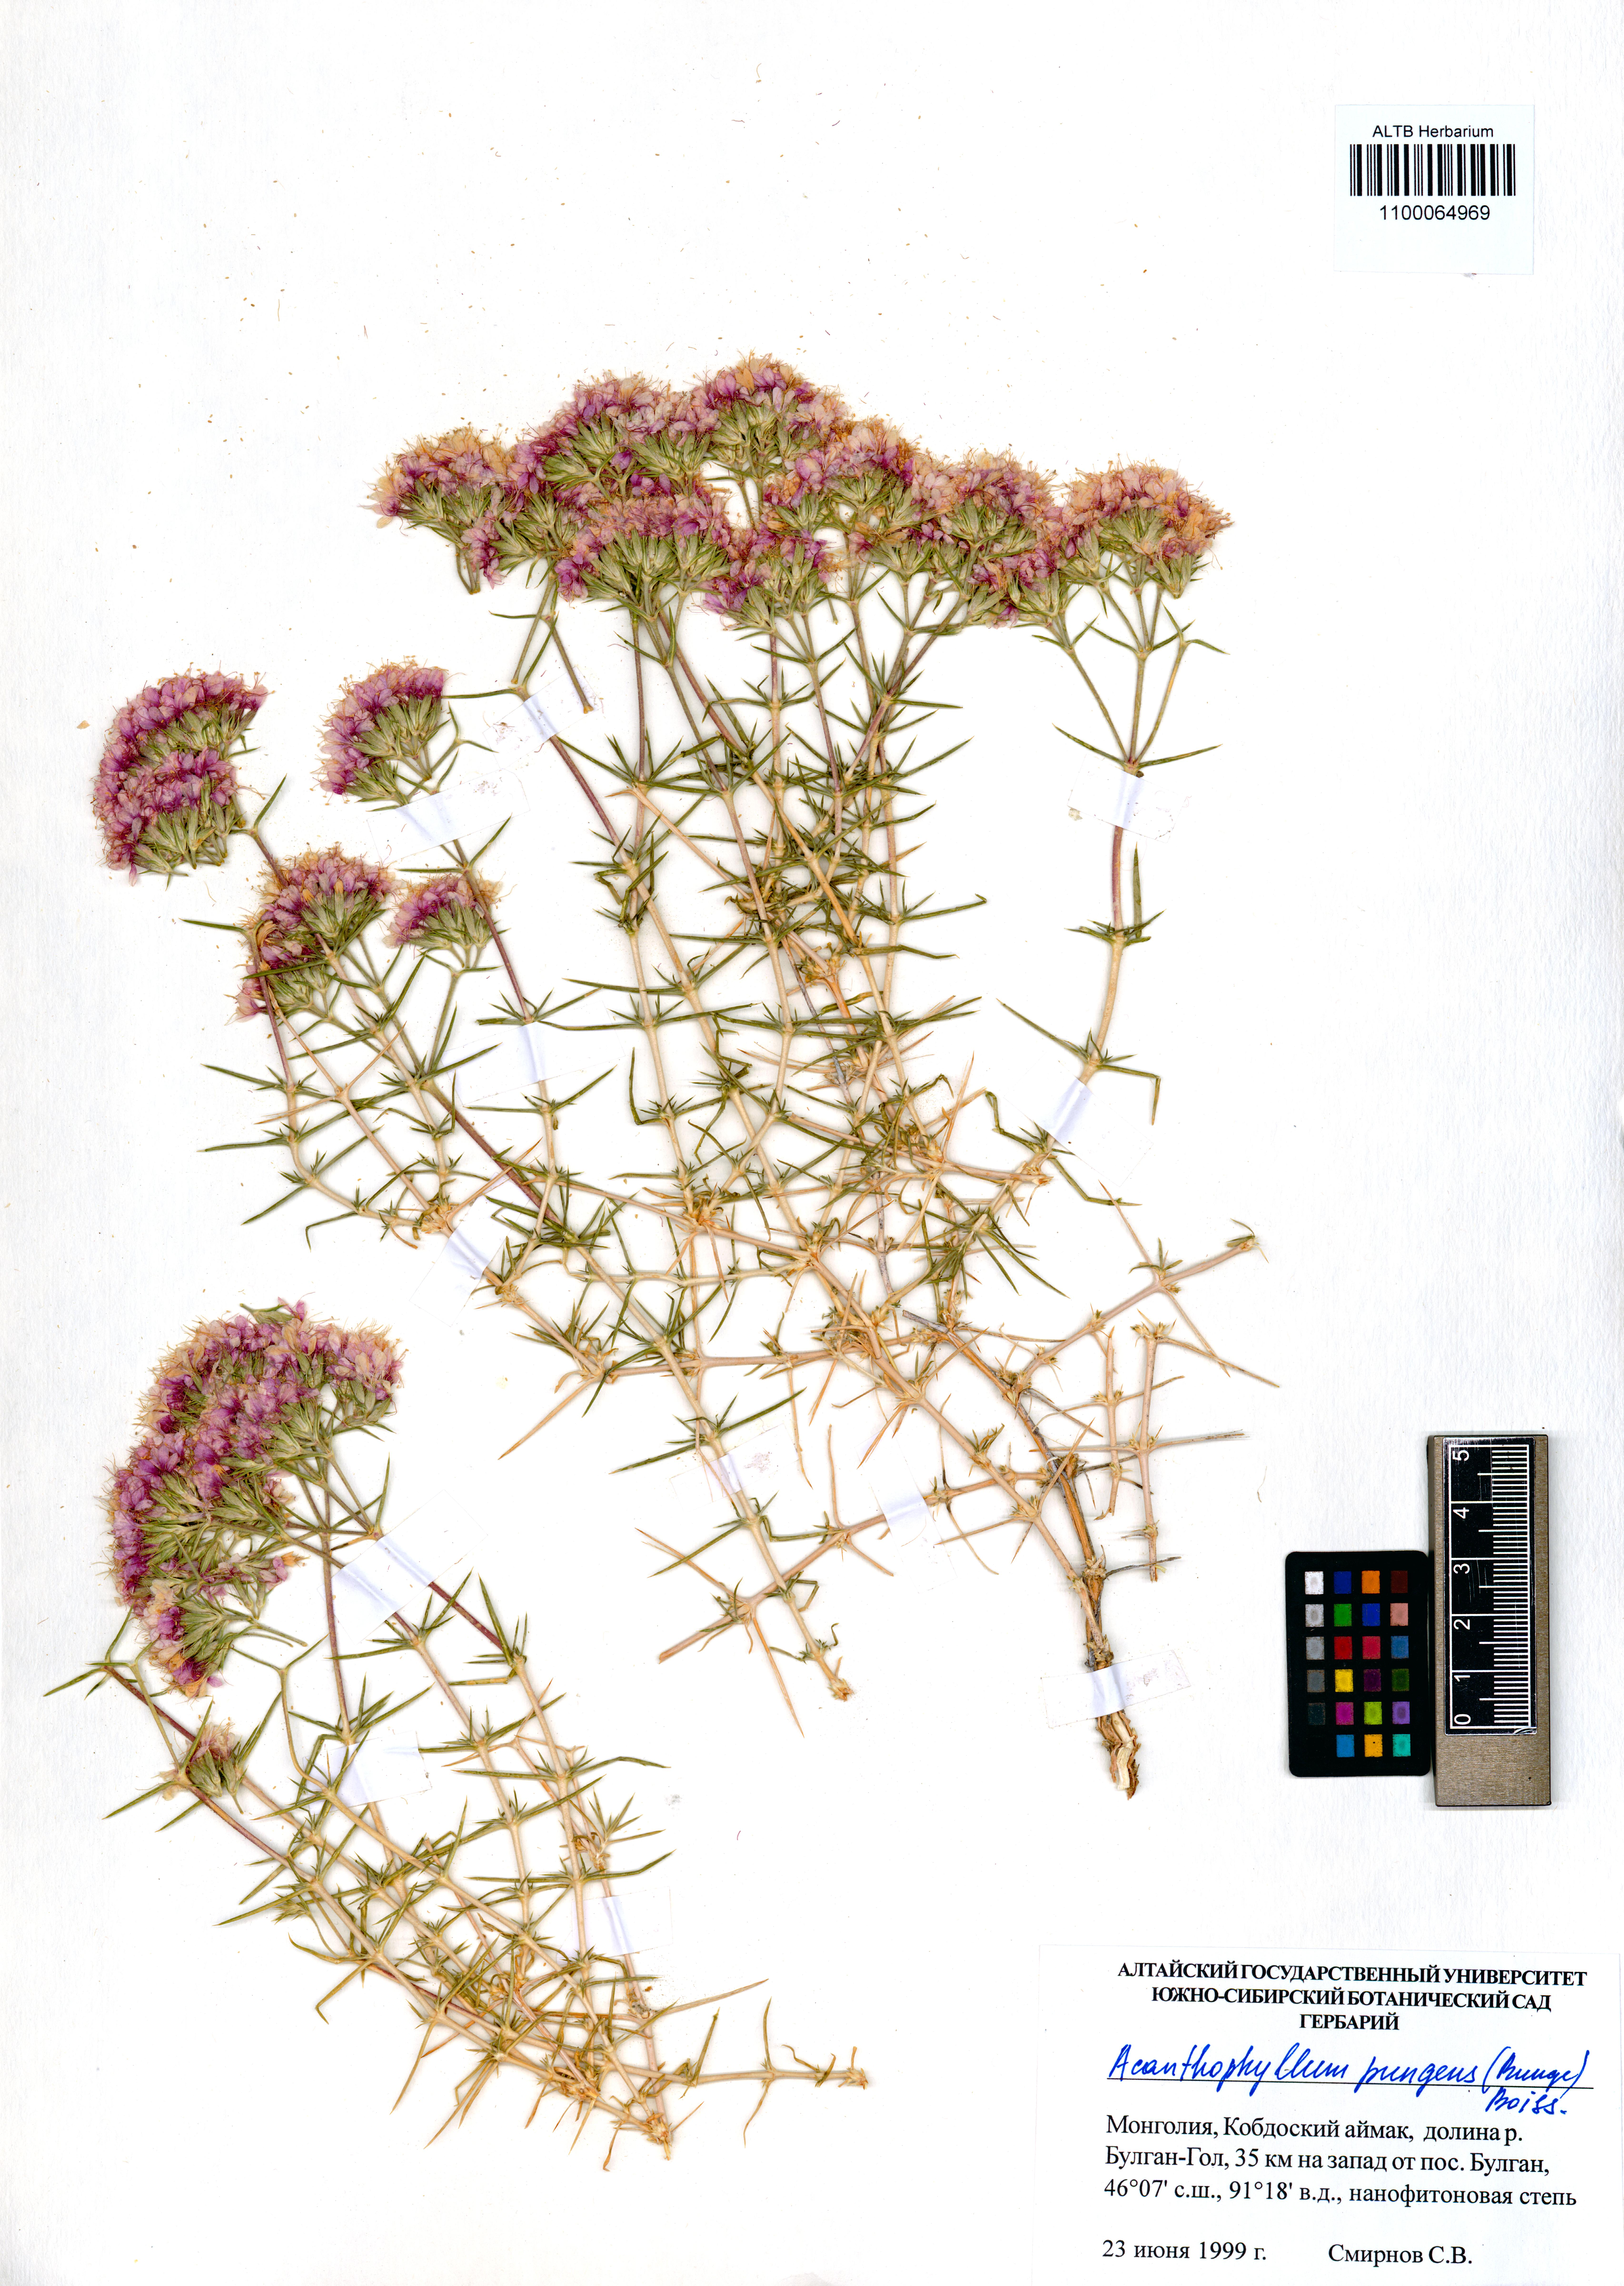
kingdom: Plantae
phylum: Tracheophyta
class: Magnoliopsida
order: Caryophyllales
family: Caryophyllaceae
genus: Acanthophyllum
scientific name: Acanthophyllum pungens
